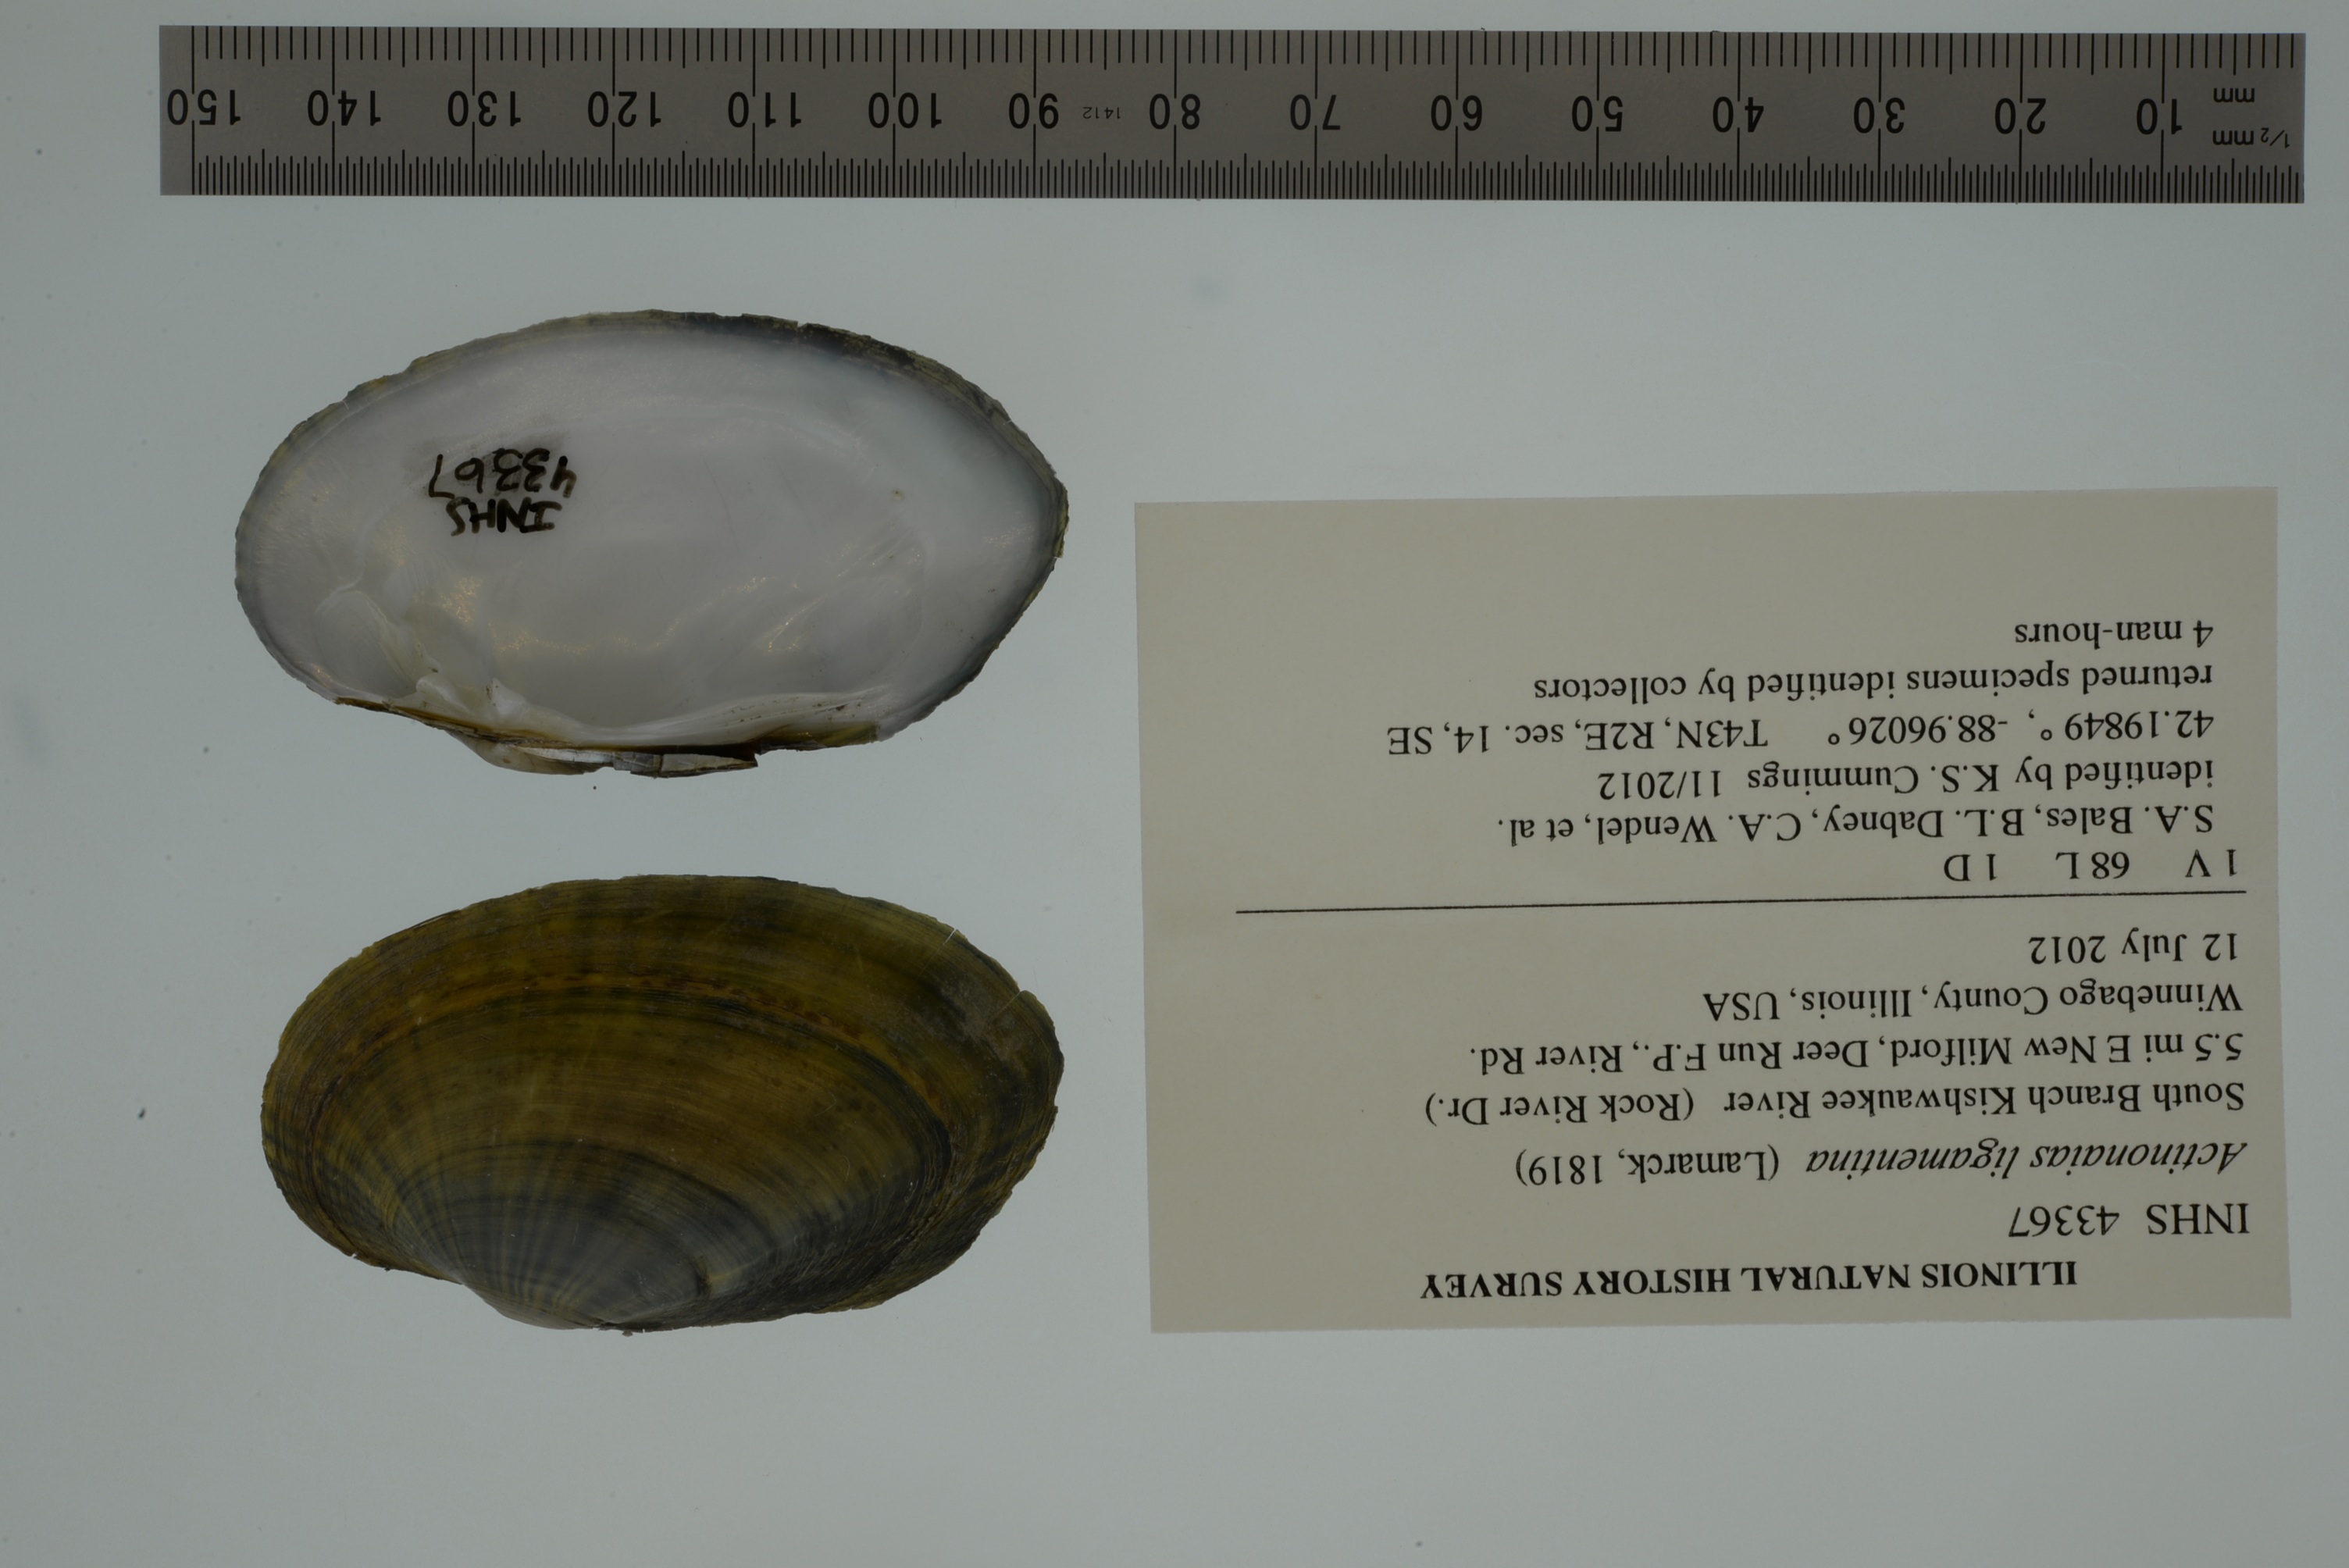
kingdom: Animalia
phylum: Mollusca
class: Bivalvia
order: Unionida
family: Unionidae
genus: Ortmanniana
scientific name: Ortmanniana ligamentina
